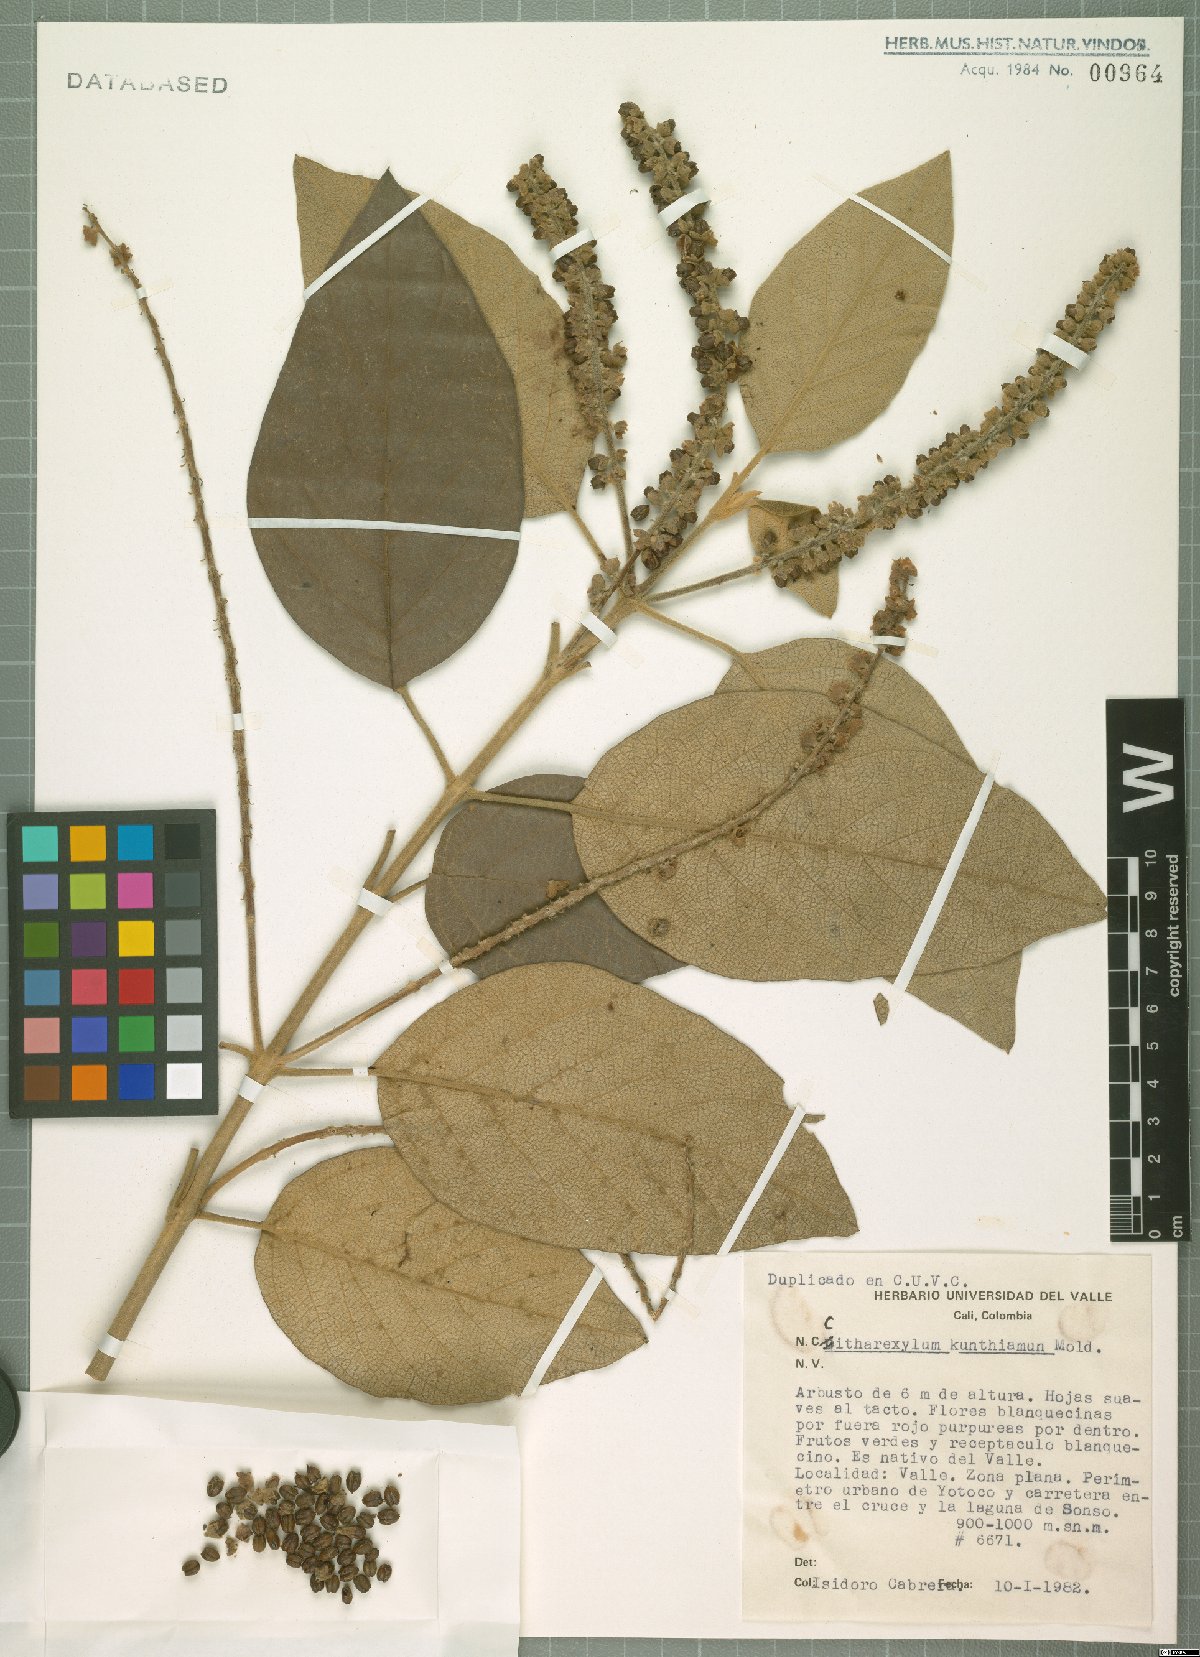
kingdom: Plantae
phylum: Tracheophyta
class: Magnoliopsida
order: Lamiales
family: Verbenaceae
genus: Citharexylum
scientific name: Citharexylum kunthianum
